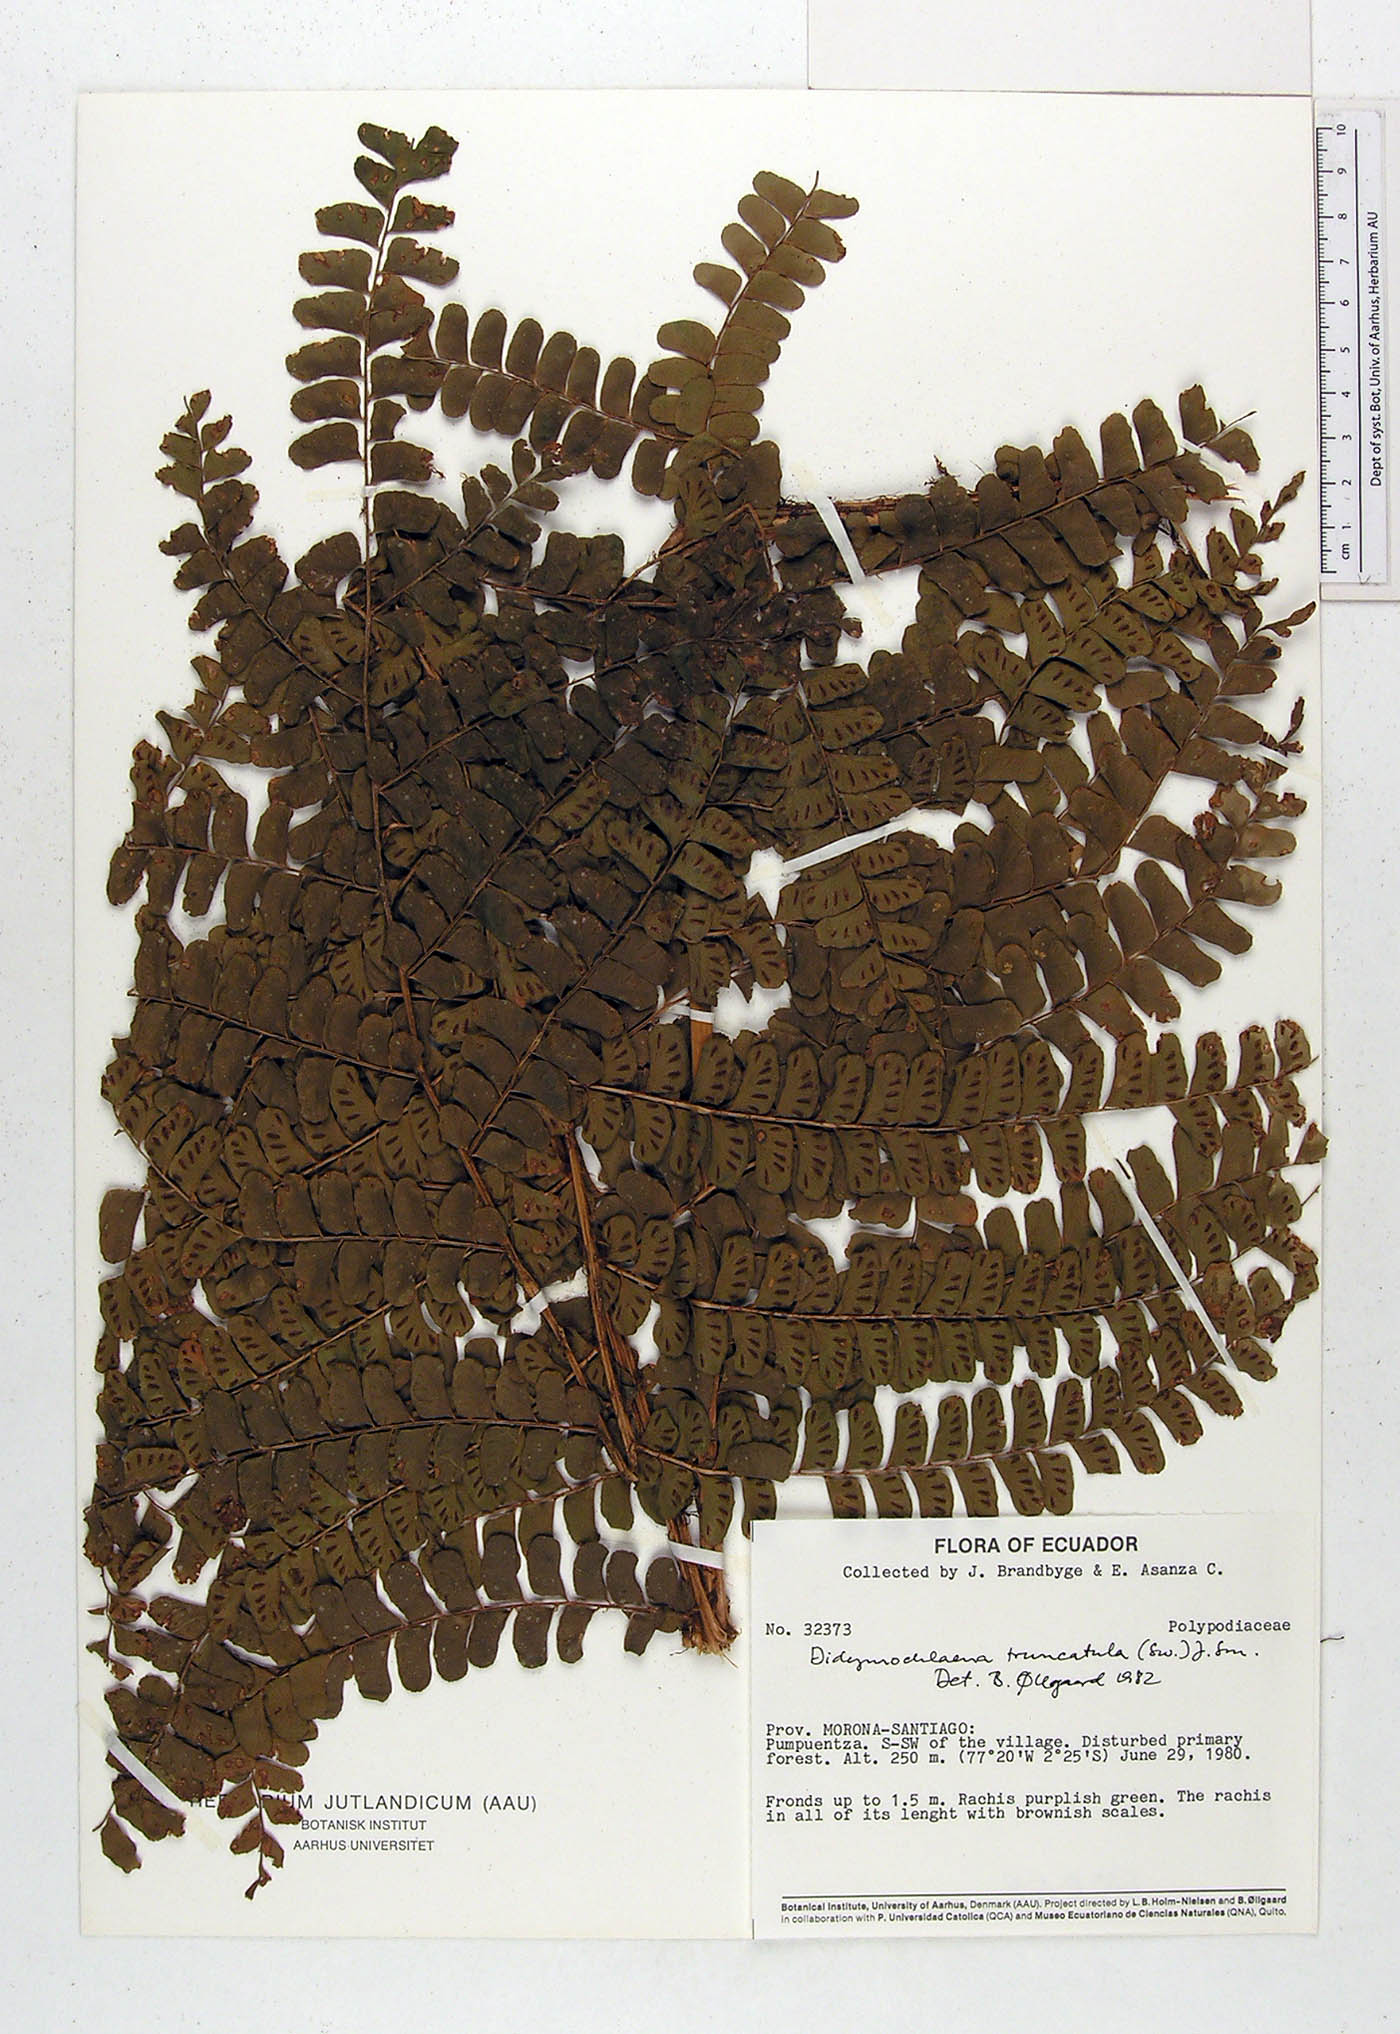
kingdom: Plantae
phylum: Tracheophyta
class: Polypodiopsida
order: Polypodiales
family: Didymochlaenaceae
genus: Didymochlaena
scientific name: Didymochlaena truncatula
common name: Mahogany fern
